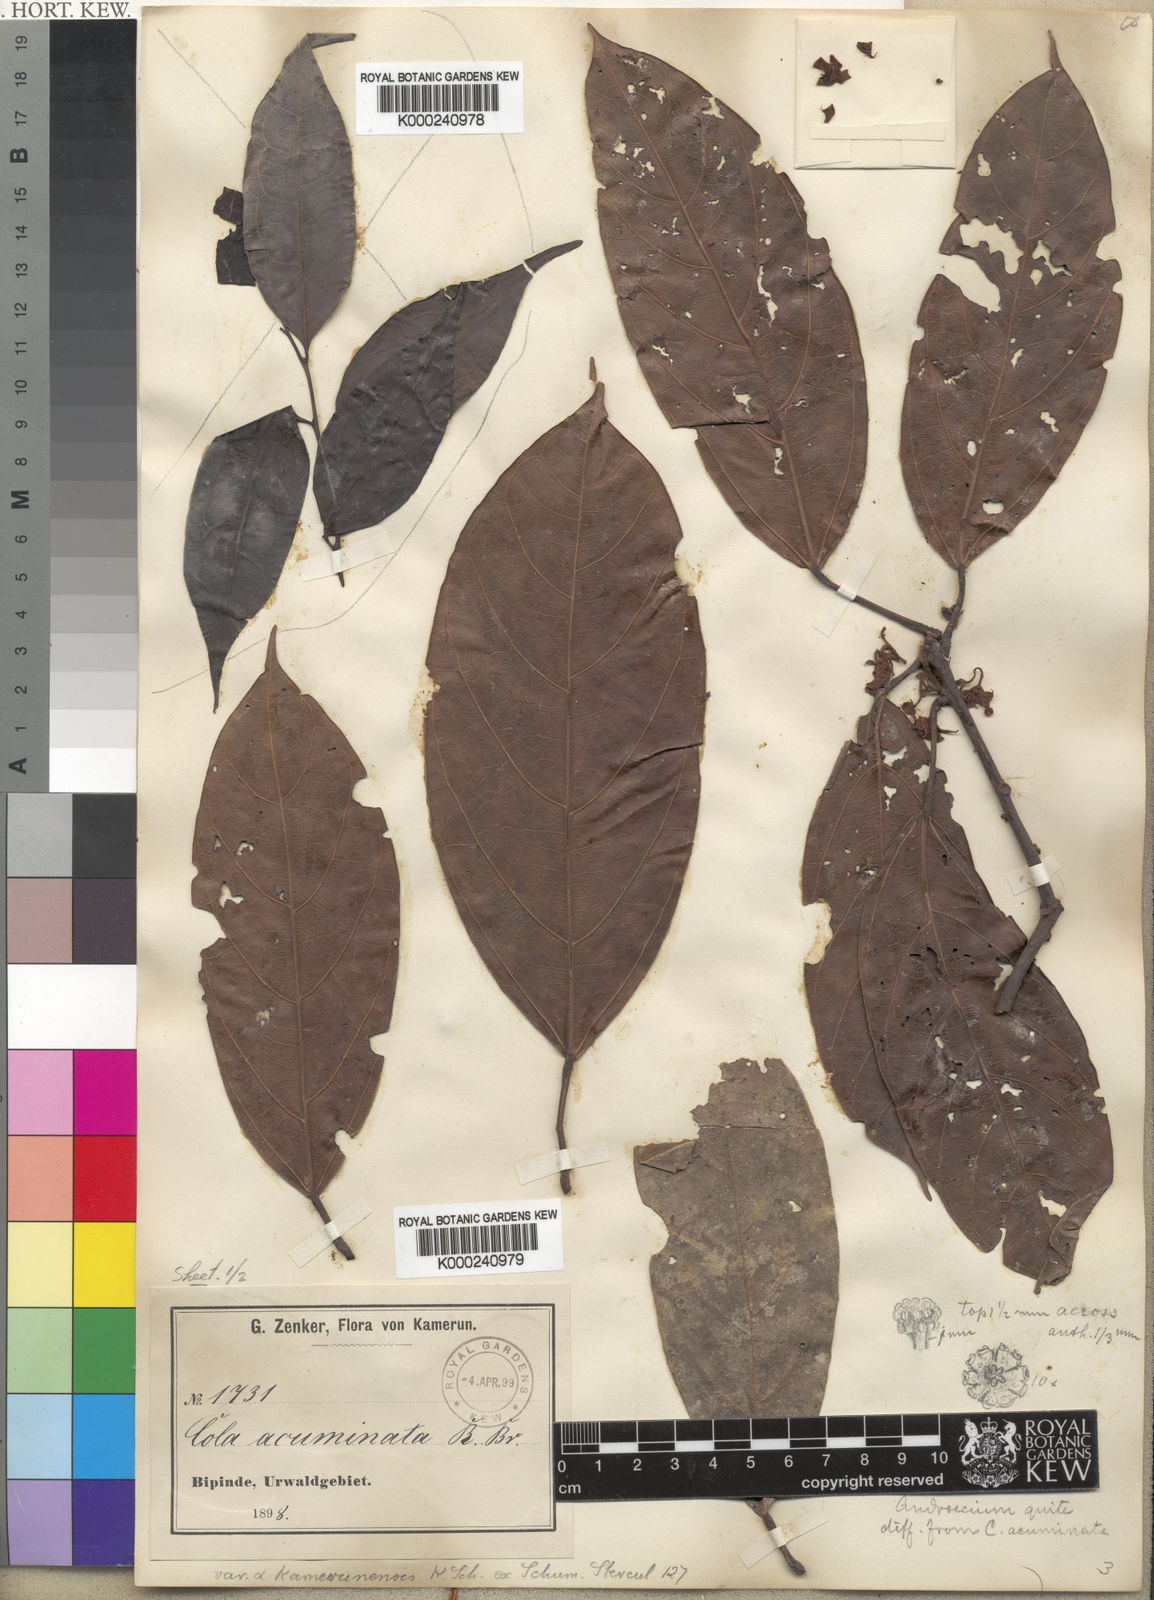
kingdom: Plantae
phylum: Tracheophyta
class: Magnoliopsida
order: Malvales
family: Malvaceae
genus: Cola
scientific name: Cola acuminata
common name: True kola
